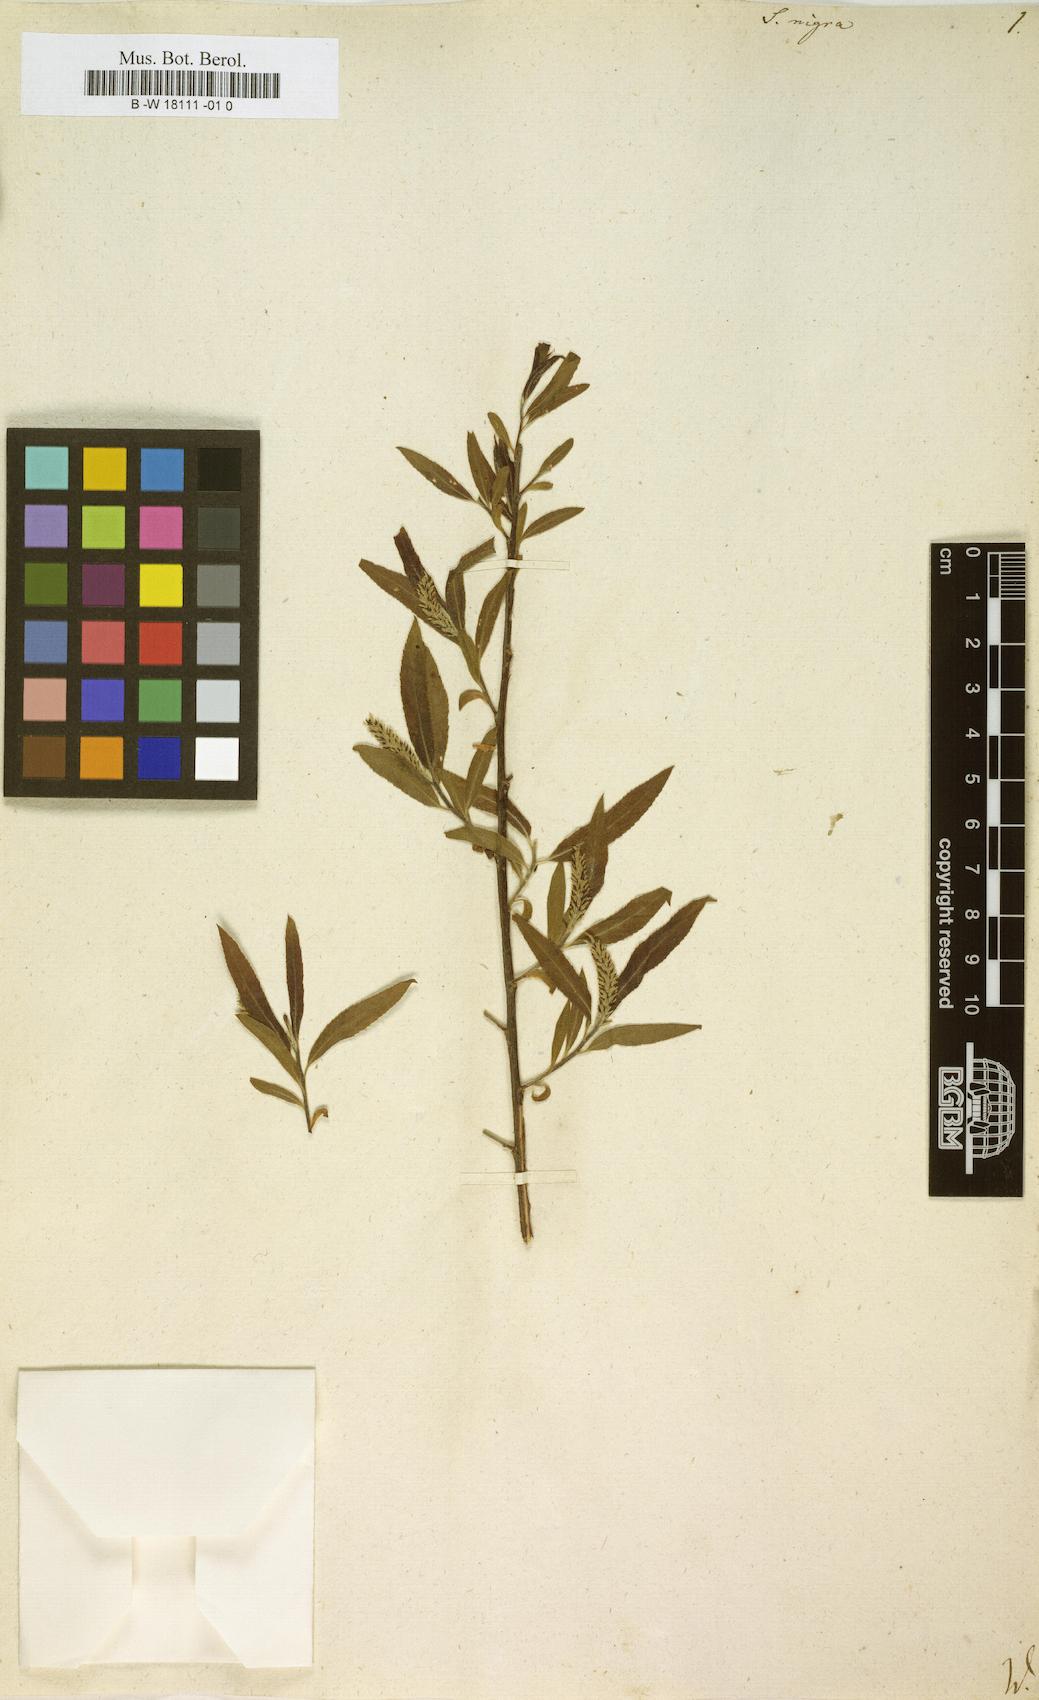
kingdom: Plantae
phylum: Tracheophyta
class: Magnoliopsida
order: Malpighiales
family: Salicaceae
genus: Salix
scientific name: Salix nigra
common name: Black willow
